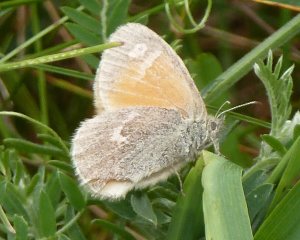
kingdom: Animalia
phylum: Arthropoda
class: Insecta
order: Lepidoptera
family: Nymphalidae
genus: Coenonympha
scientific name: Coenonympha tullia
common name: Large Heath
